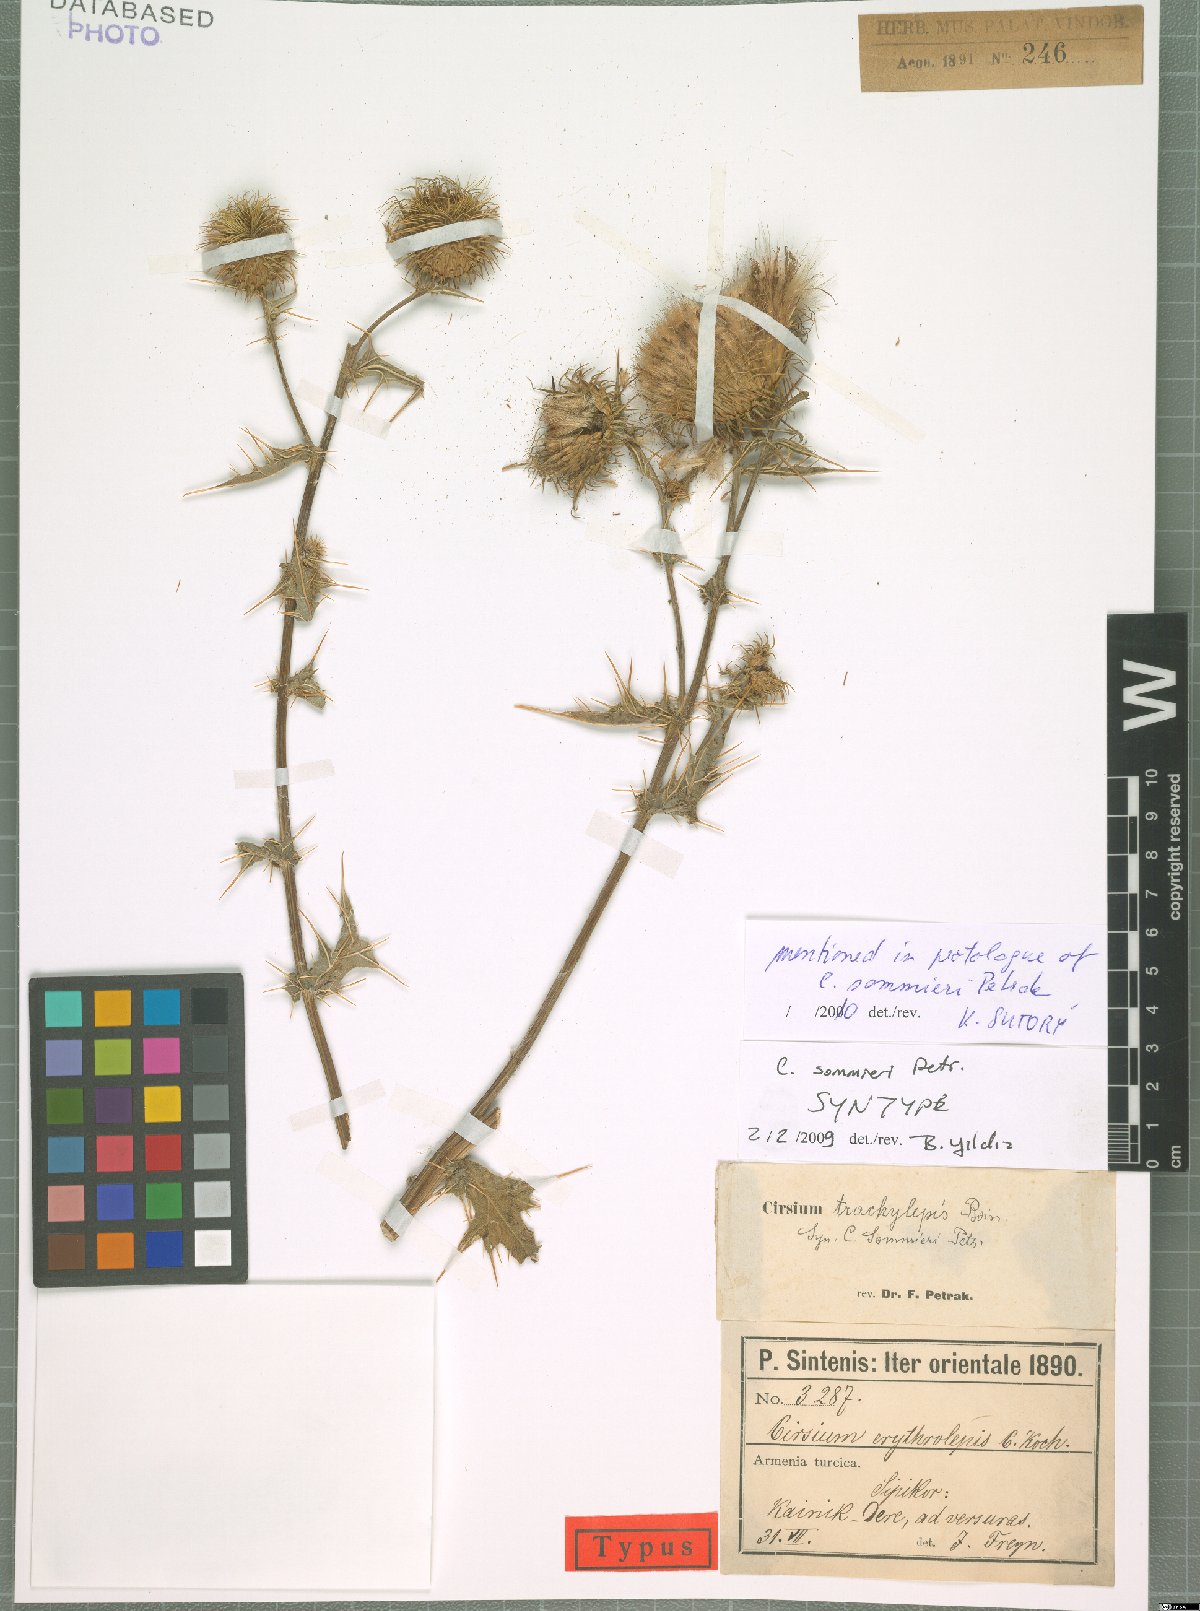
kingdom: Plantae
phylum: Tracheophyta
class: Magnoliopsida
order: Asterales
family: Asteraceae
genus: Lophiolepis
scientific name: Lophiolepis sommieri
